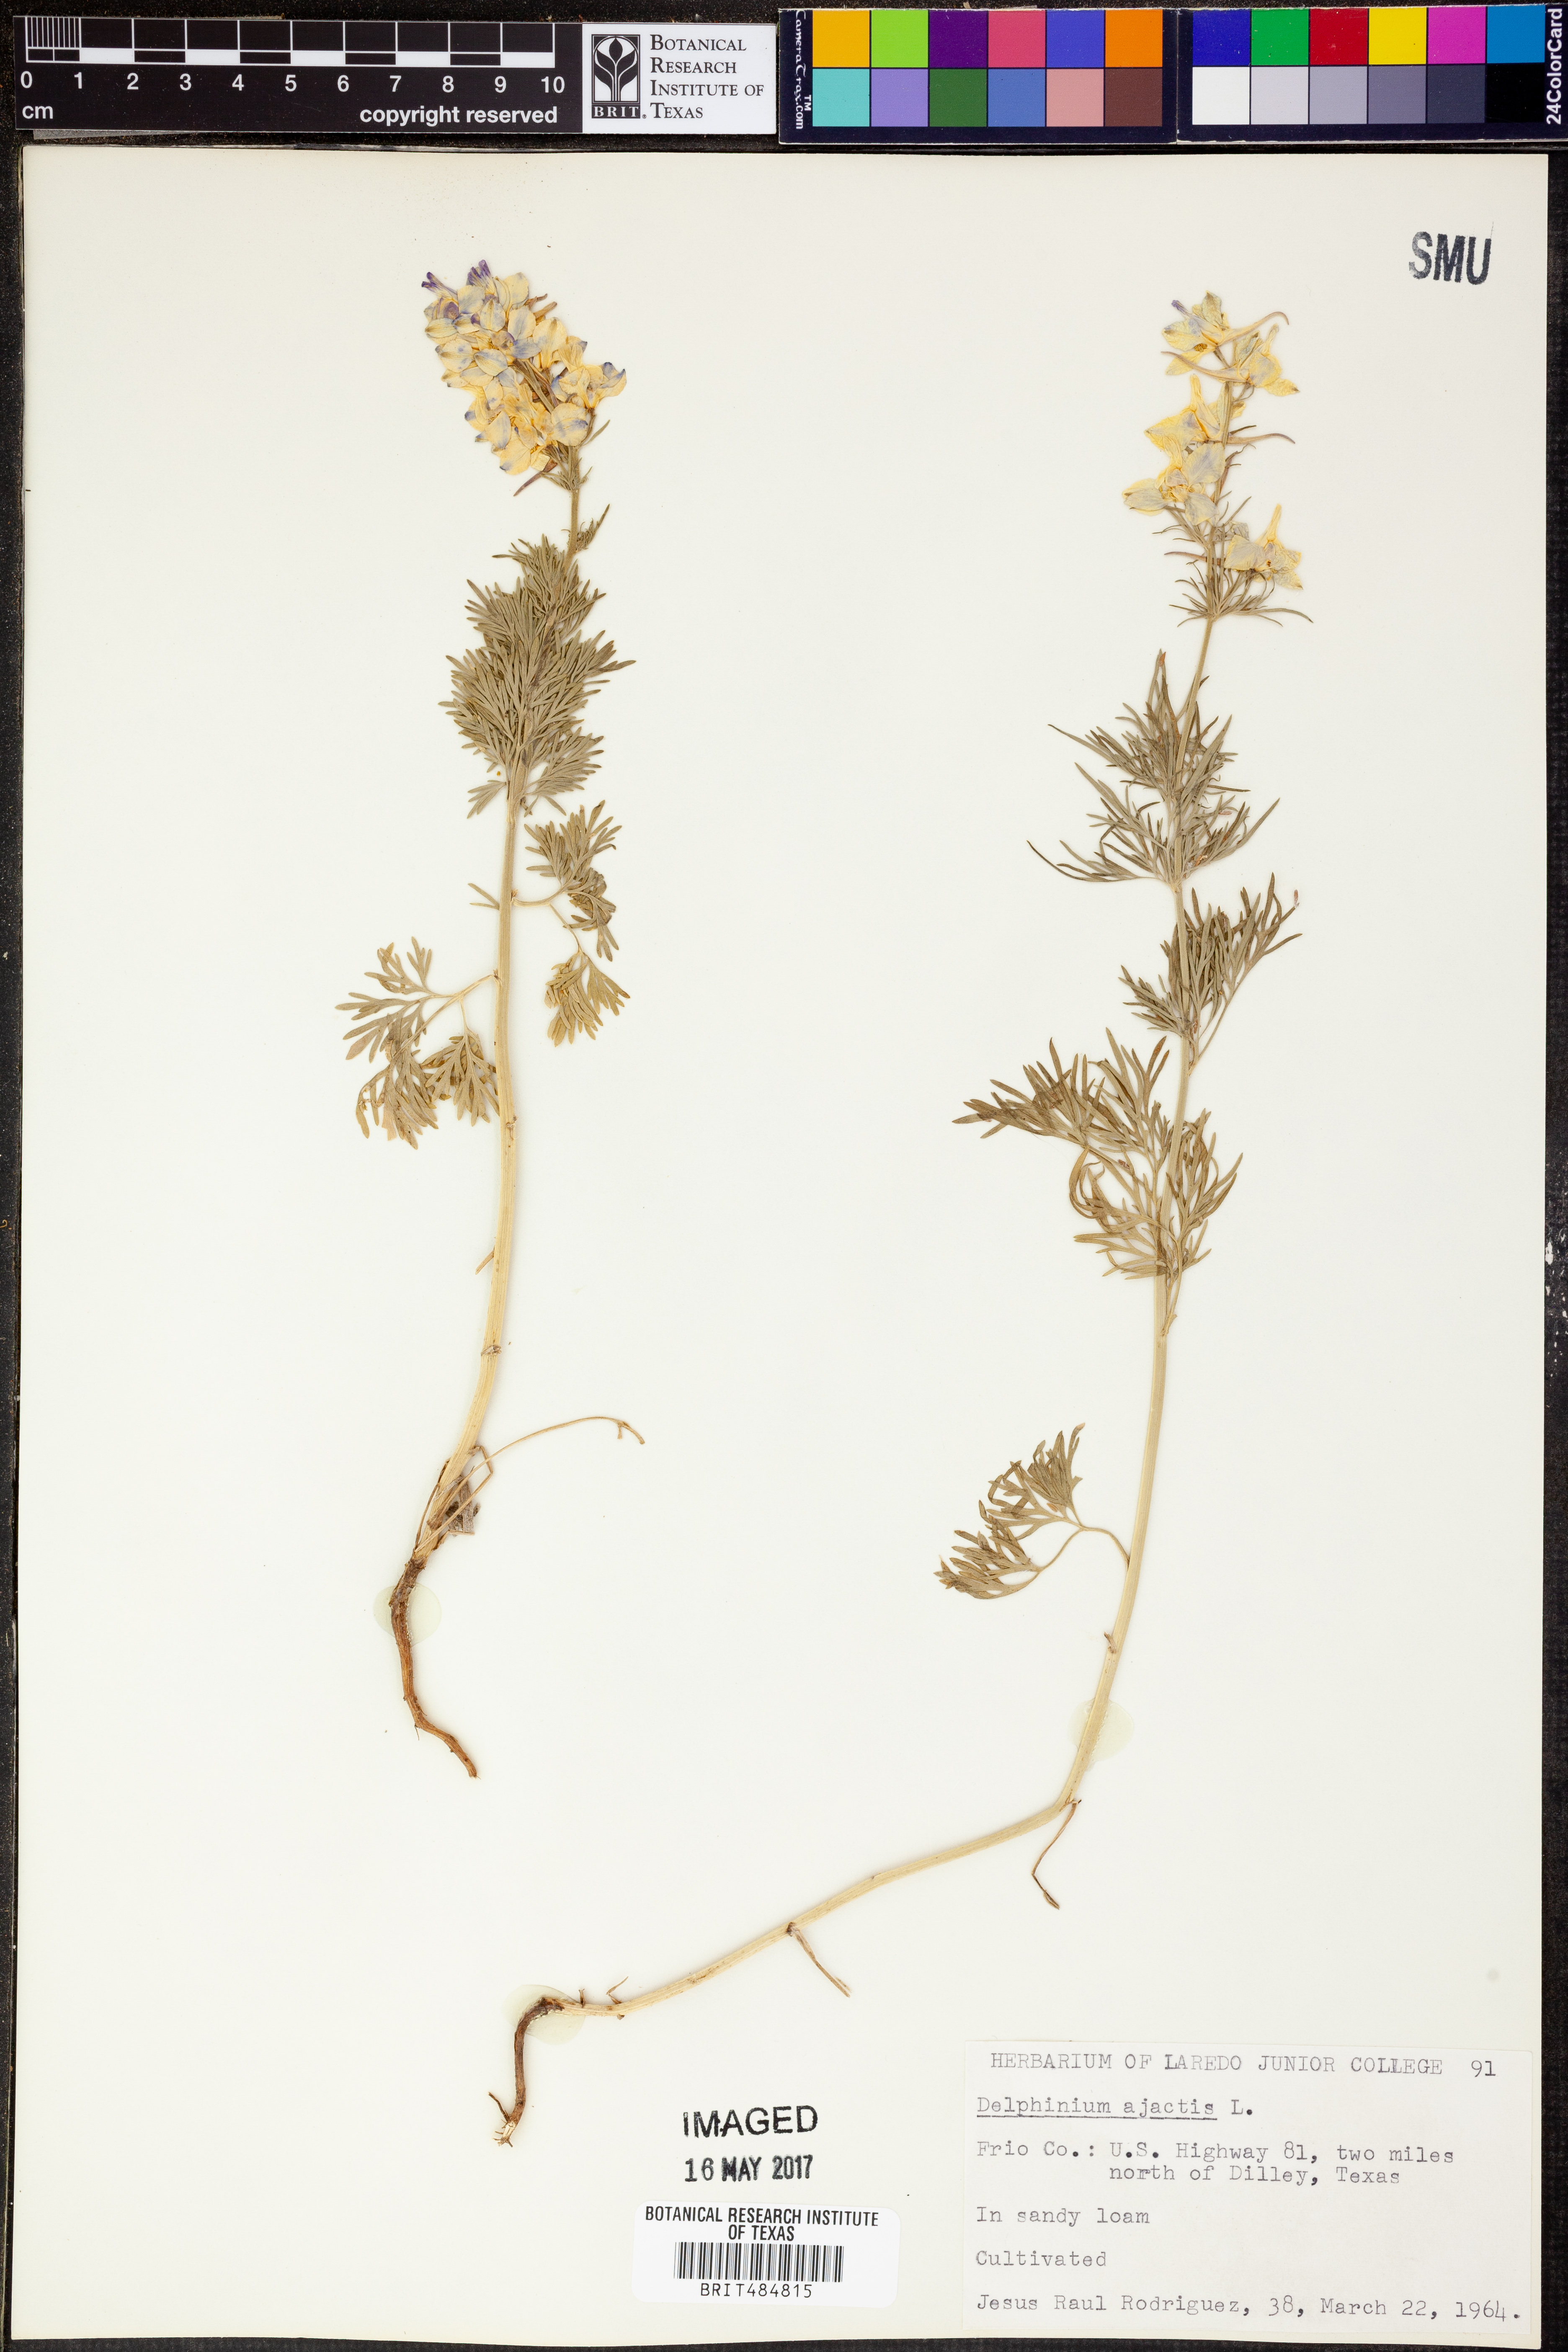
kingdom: Plantae
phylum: Tracheophyta
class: Magnoliopsida
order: Ranunculales
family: Ranunculaceae
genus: Delphinium
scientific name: Delphinium ajacis
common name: Doubtful knight's-spur
